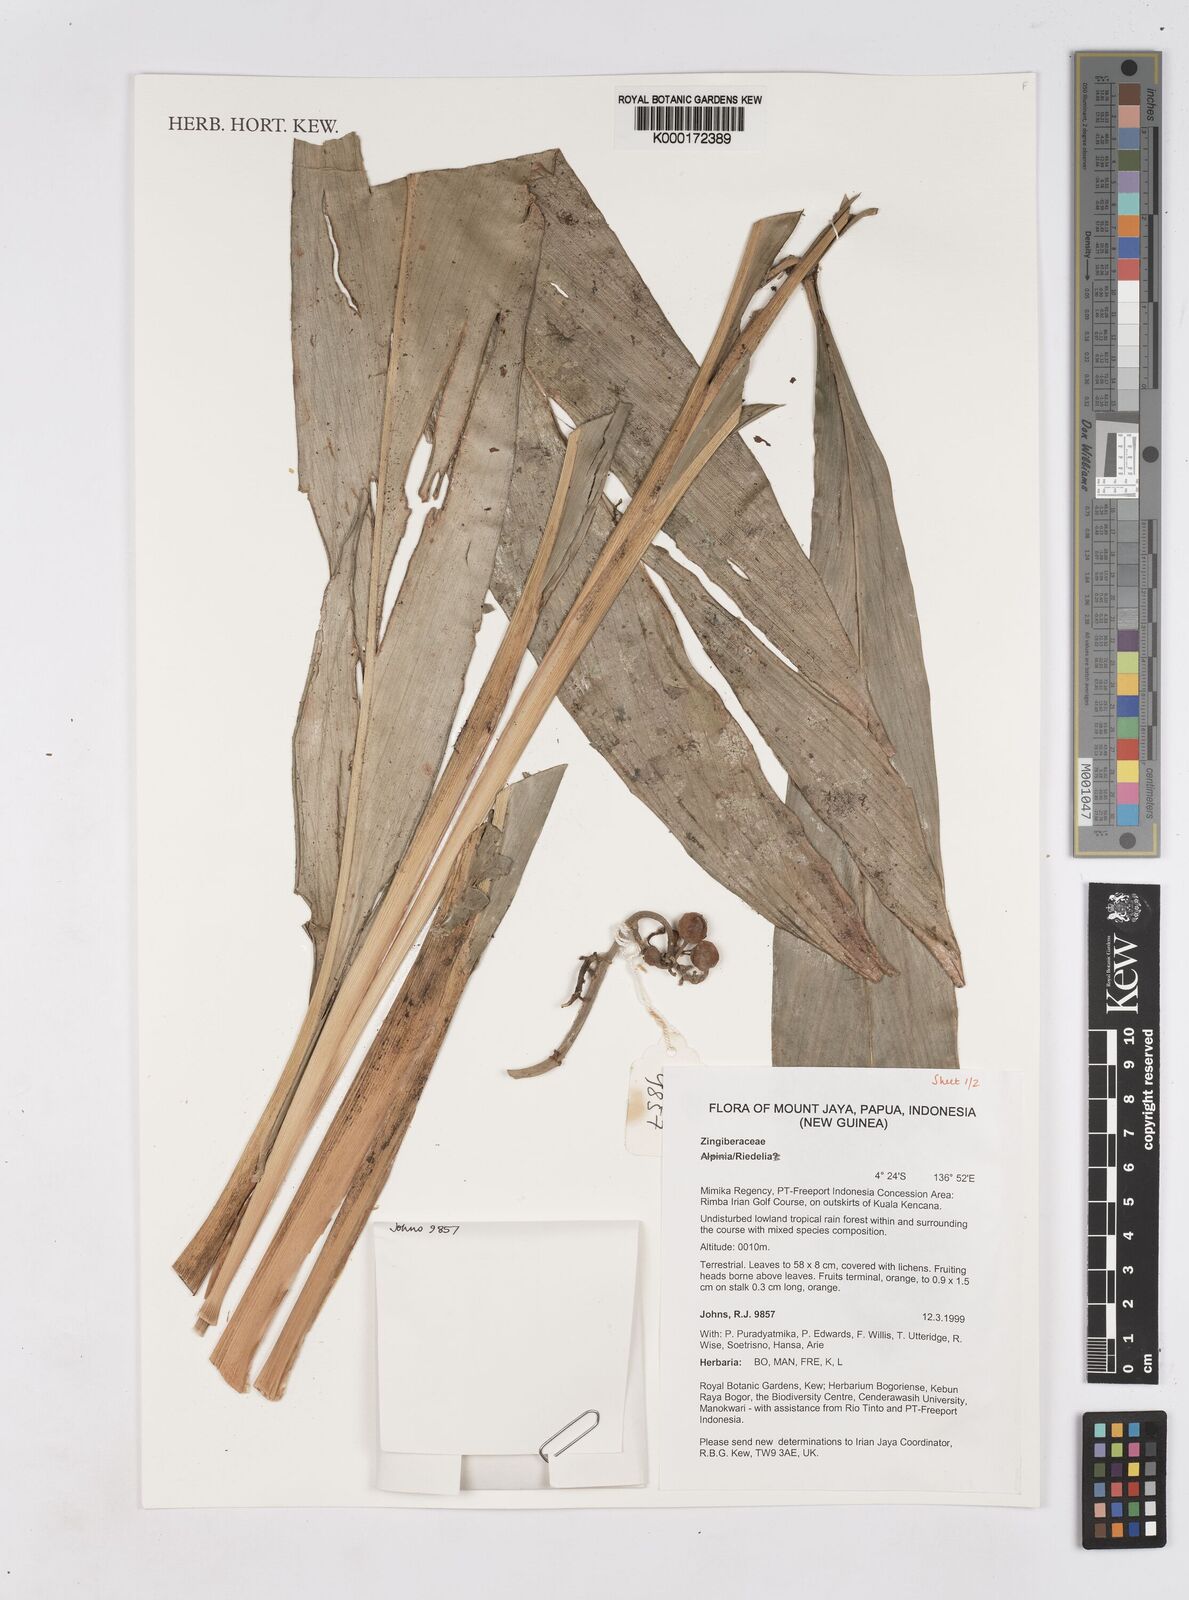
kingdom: Plantae
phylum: Tracheophyta
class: Liliopsida
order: Zingiberales
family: Zingiberaceae
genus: Riedelia
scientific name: Riedelia
